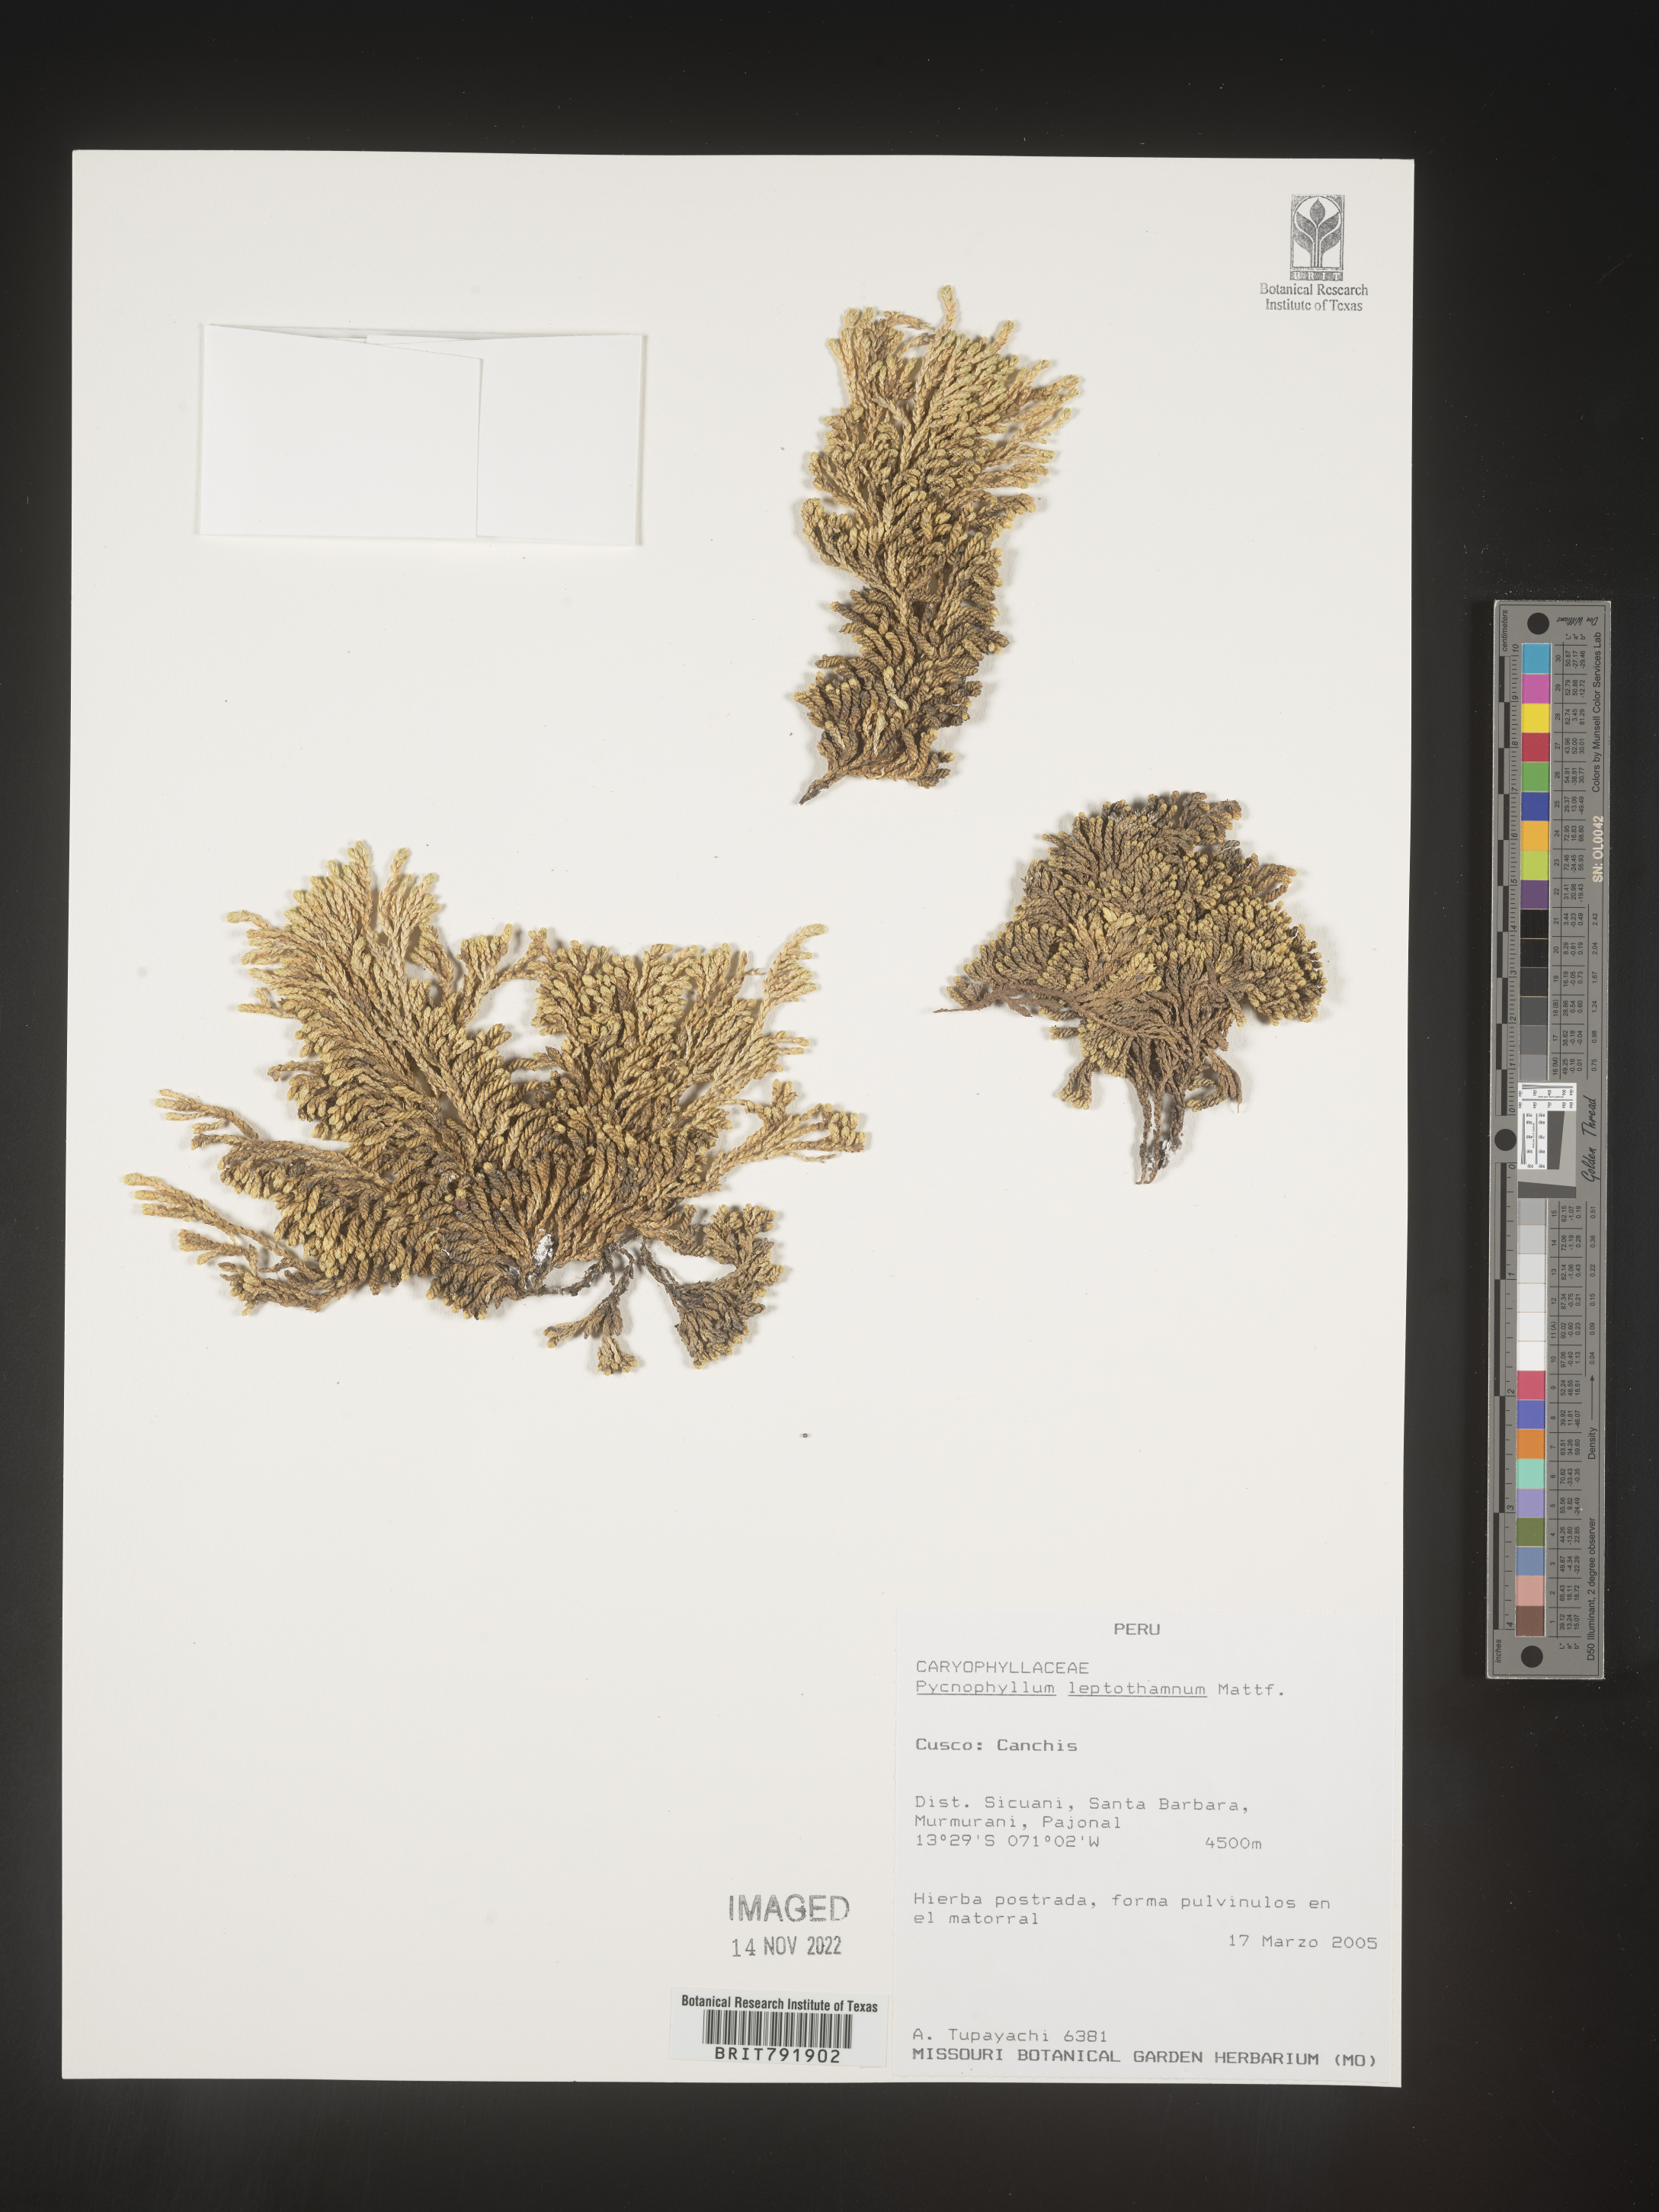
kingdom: Plantae
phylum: Tracheophyta
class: Magnoliopsida
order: Caryophyllales
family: Caryophyllaceae
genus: Pycnophyllum
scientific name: Pycnophyllum
